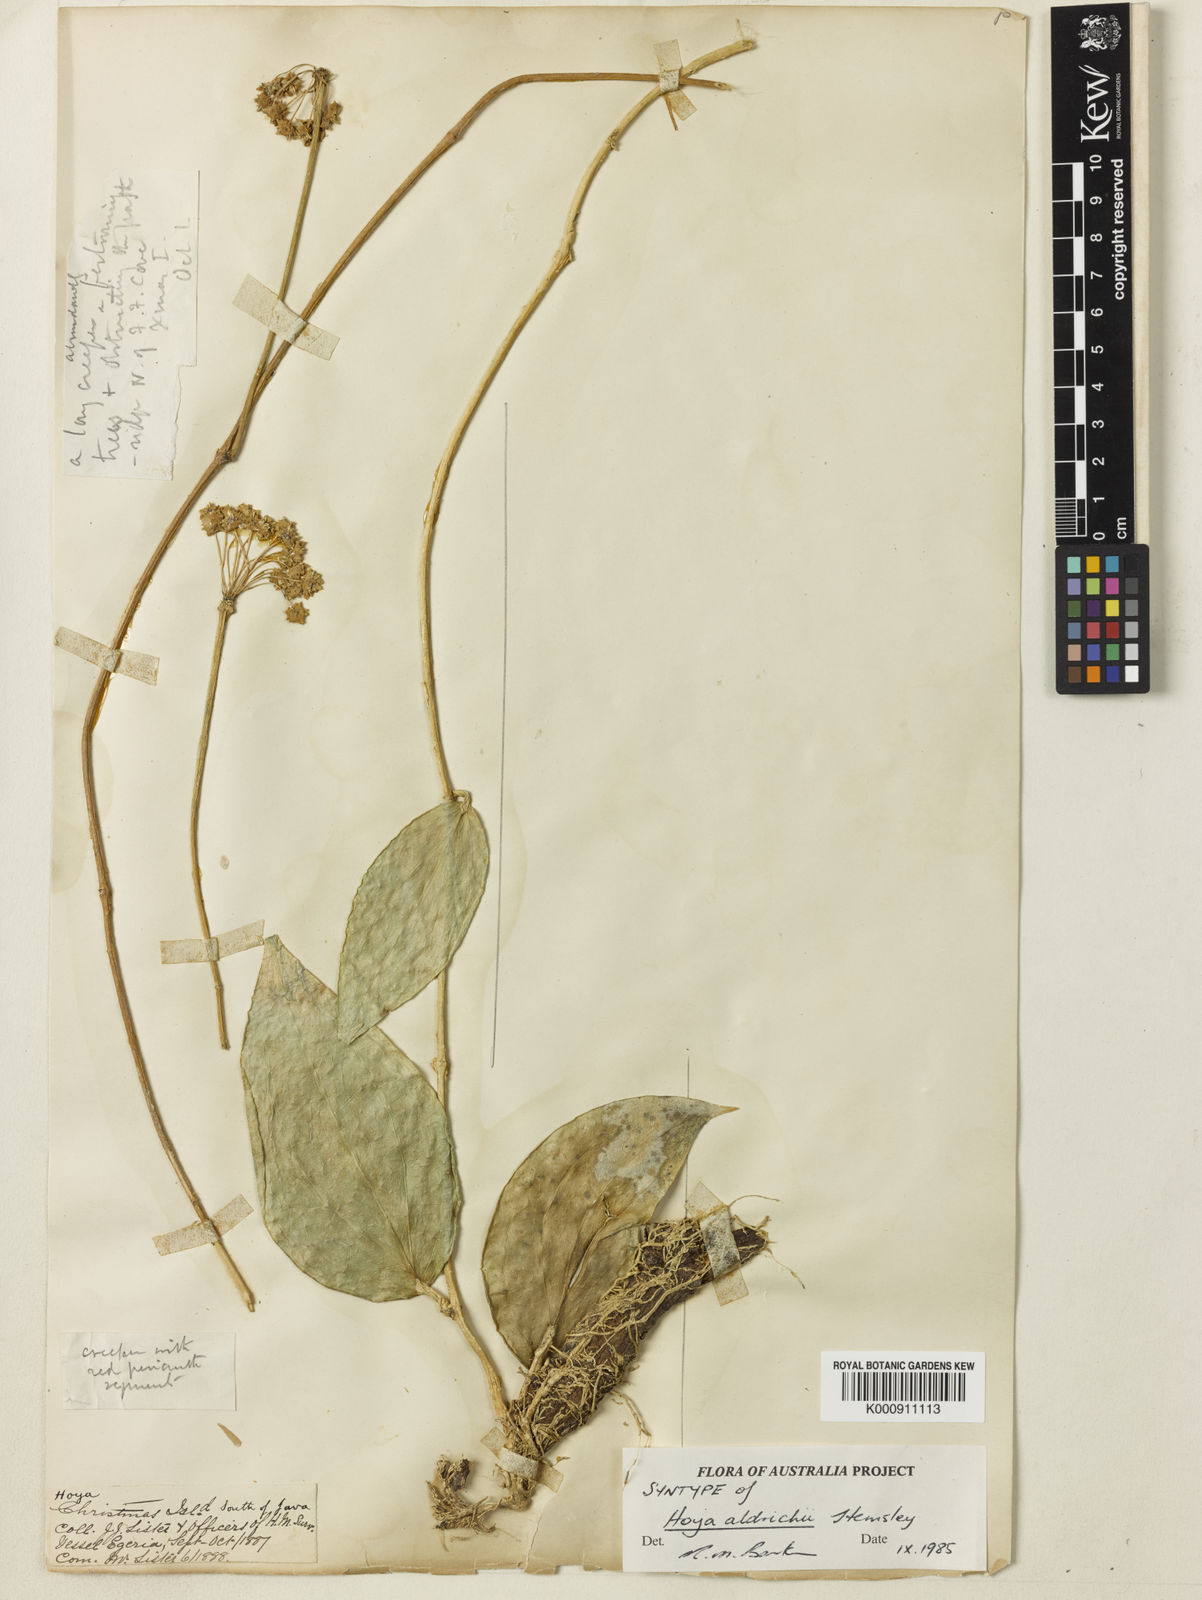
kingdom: Plantae
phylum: Tracheophyta
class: Magnoliopsida
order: Gentianales
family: Apocynaceae
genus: Hoya
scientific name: Hoya aldrichii
